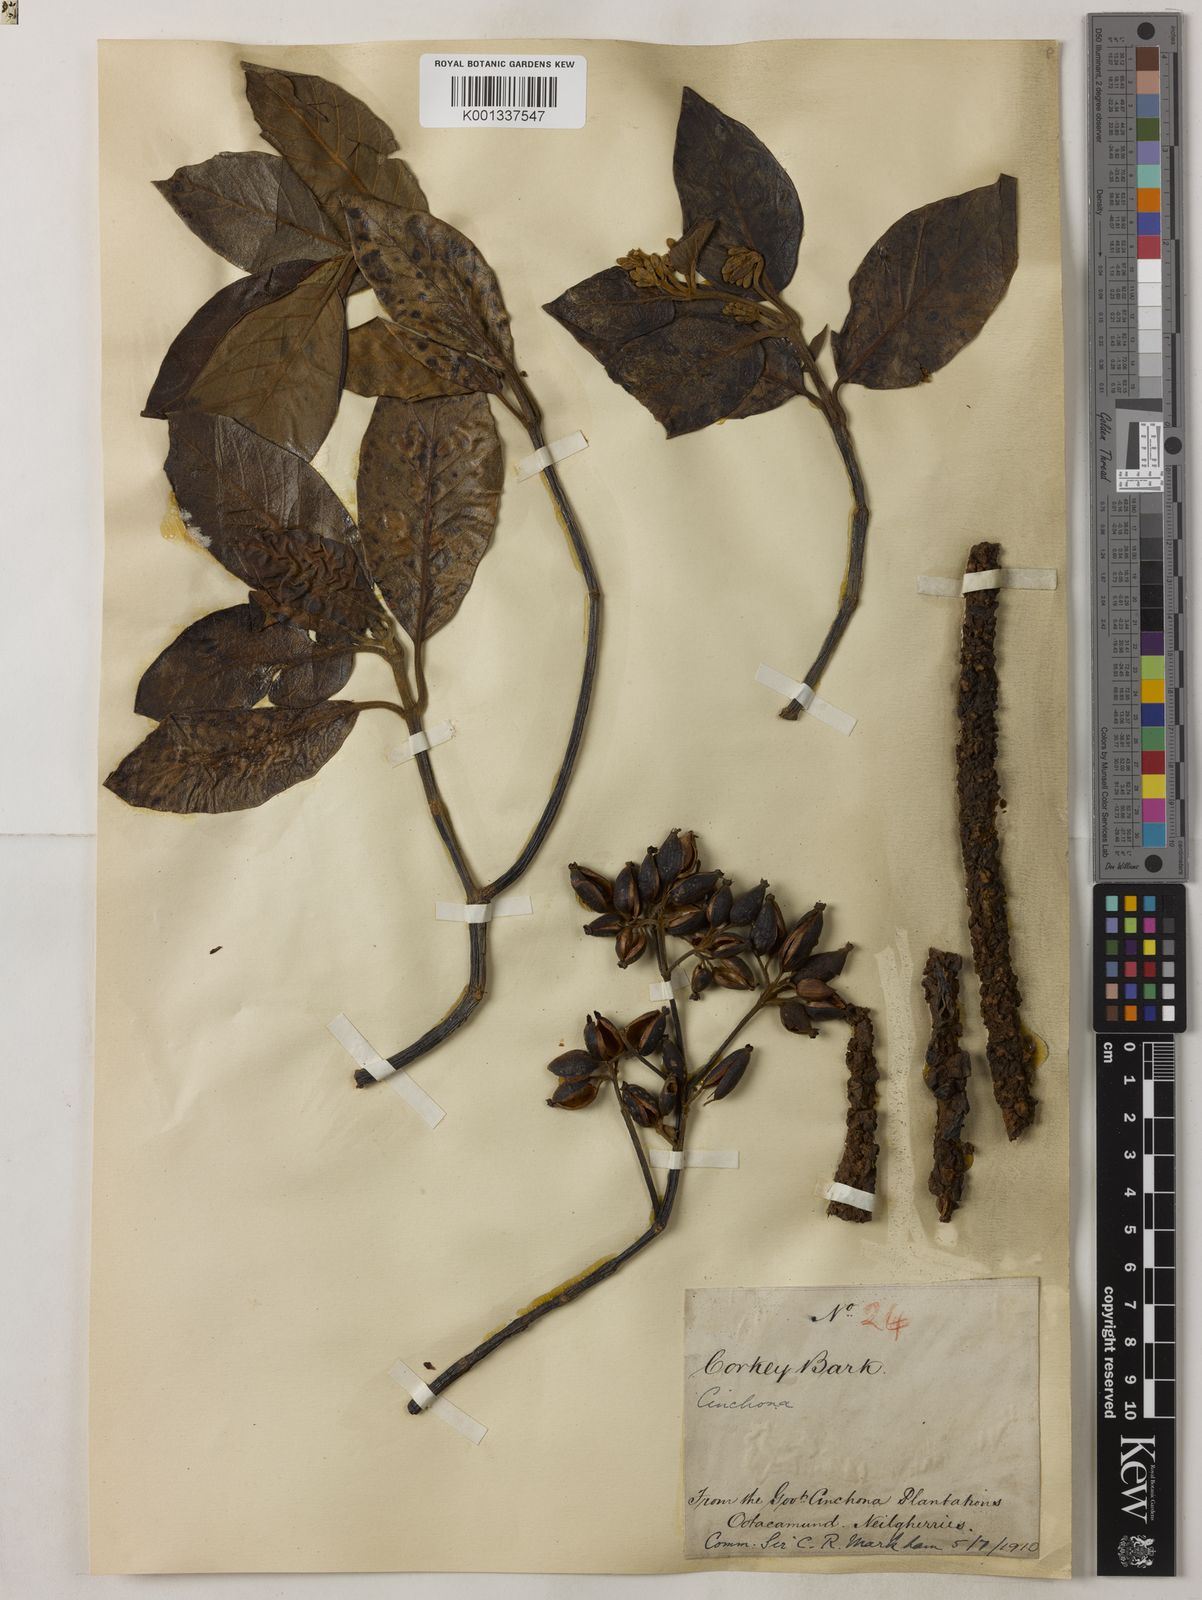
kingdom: Plantae
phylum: Tracheophyta
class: Magnoliopsida
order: Gentianales
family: Rubiaceae
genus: Cinchona
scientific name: Cinchona
